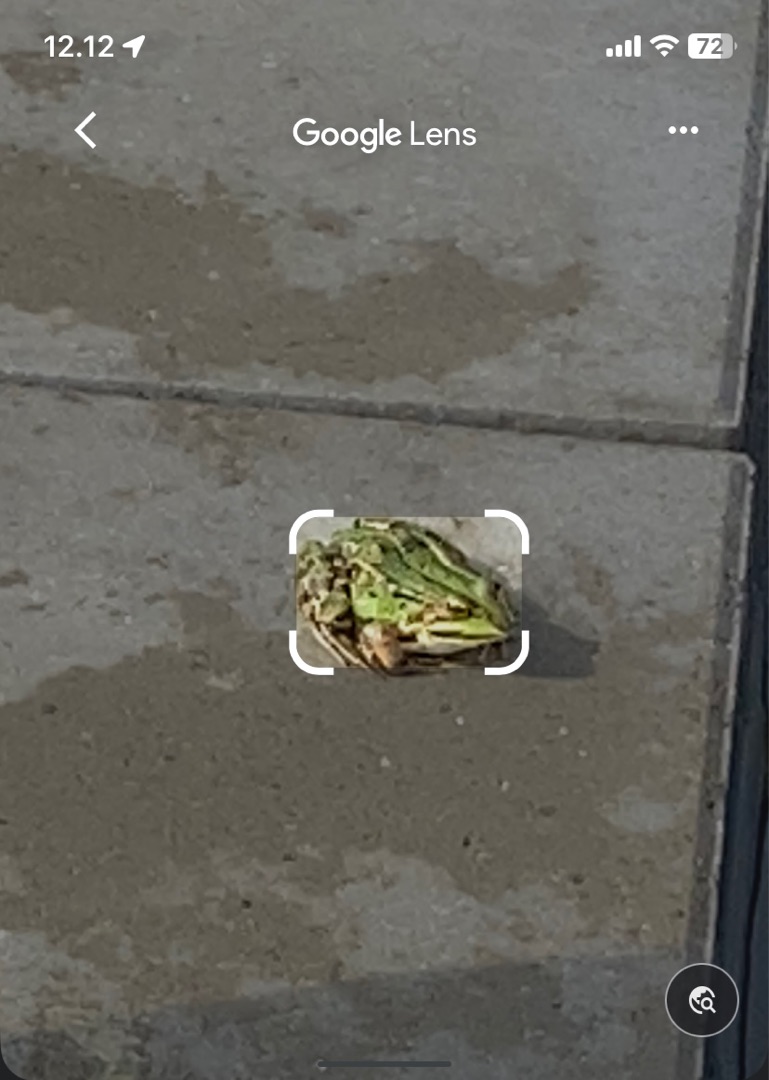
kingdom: Animalia
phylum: Chordata
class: Amphibia
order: Anura
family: Ranidae
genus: Pelophylax
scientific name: Pelophylax lessonae
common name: Grøn frø
